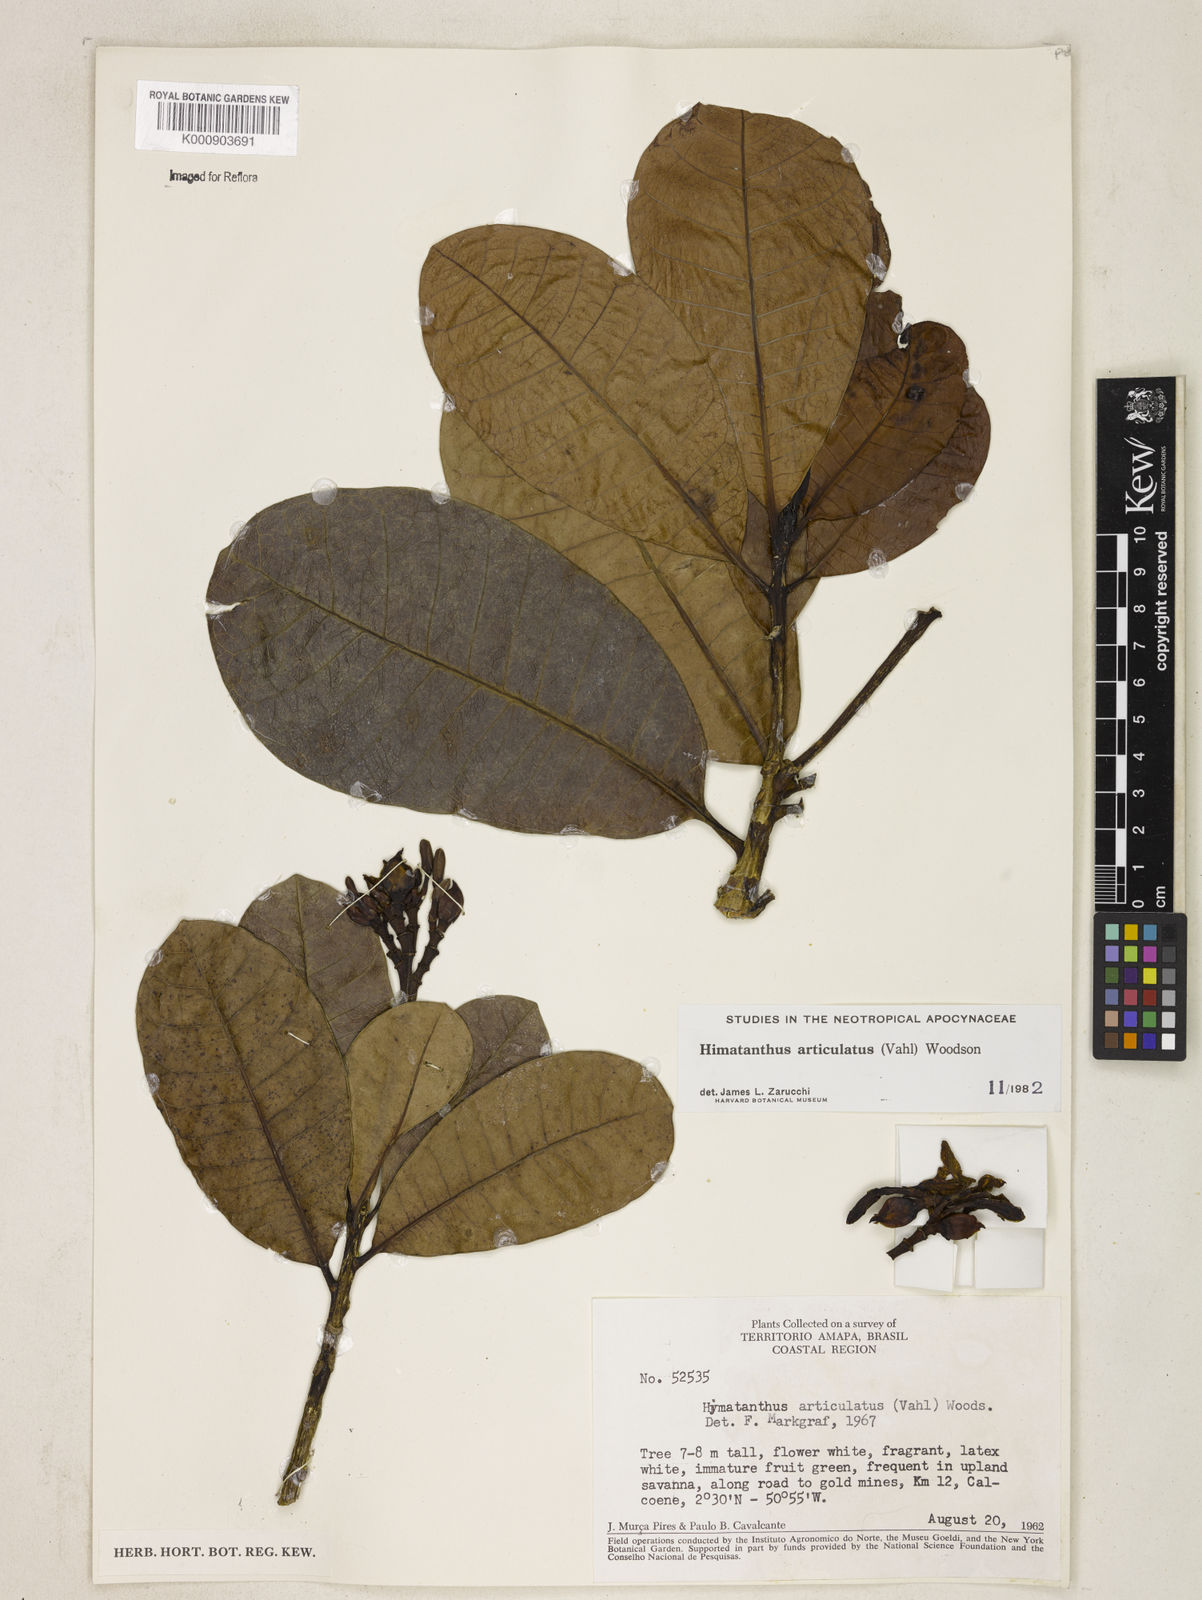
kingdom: Plantae
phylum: Tracheophyta
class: Magnoliopsida
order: Gentianales
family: Apocynaceae
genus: Himatanthus
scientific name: Himatanthus articulatus
